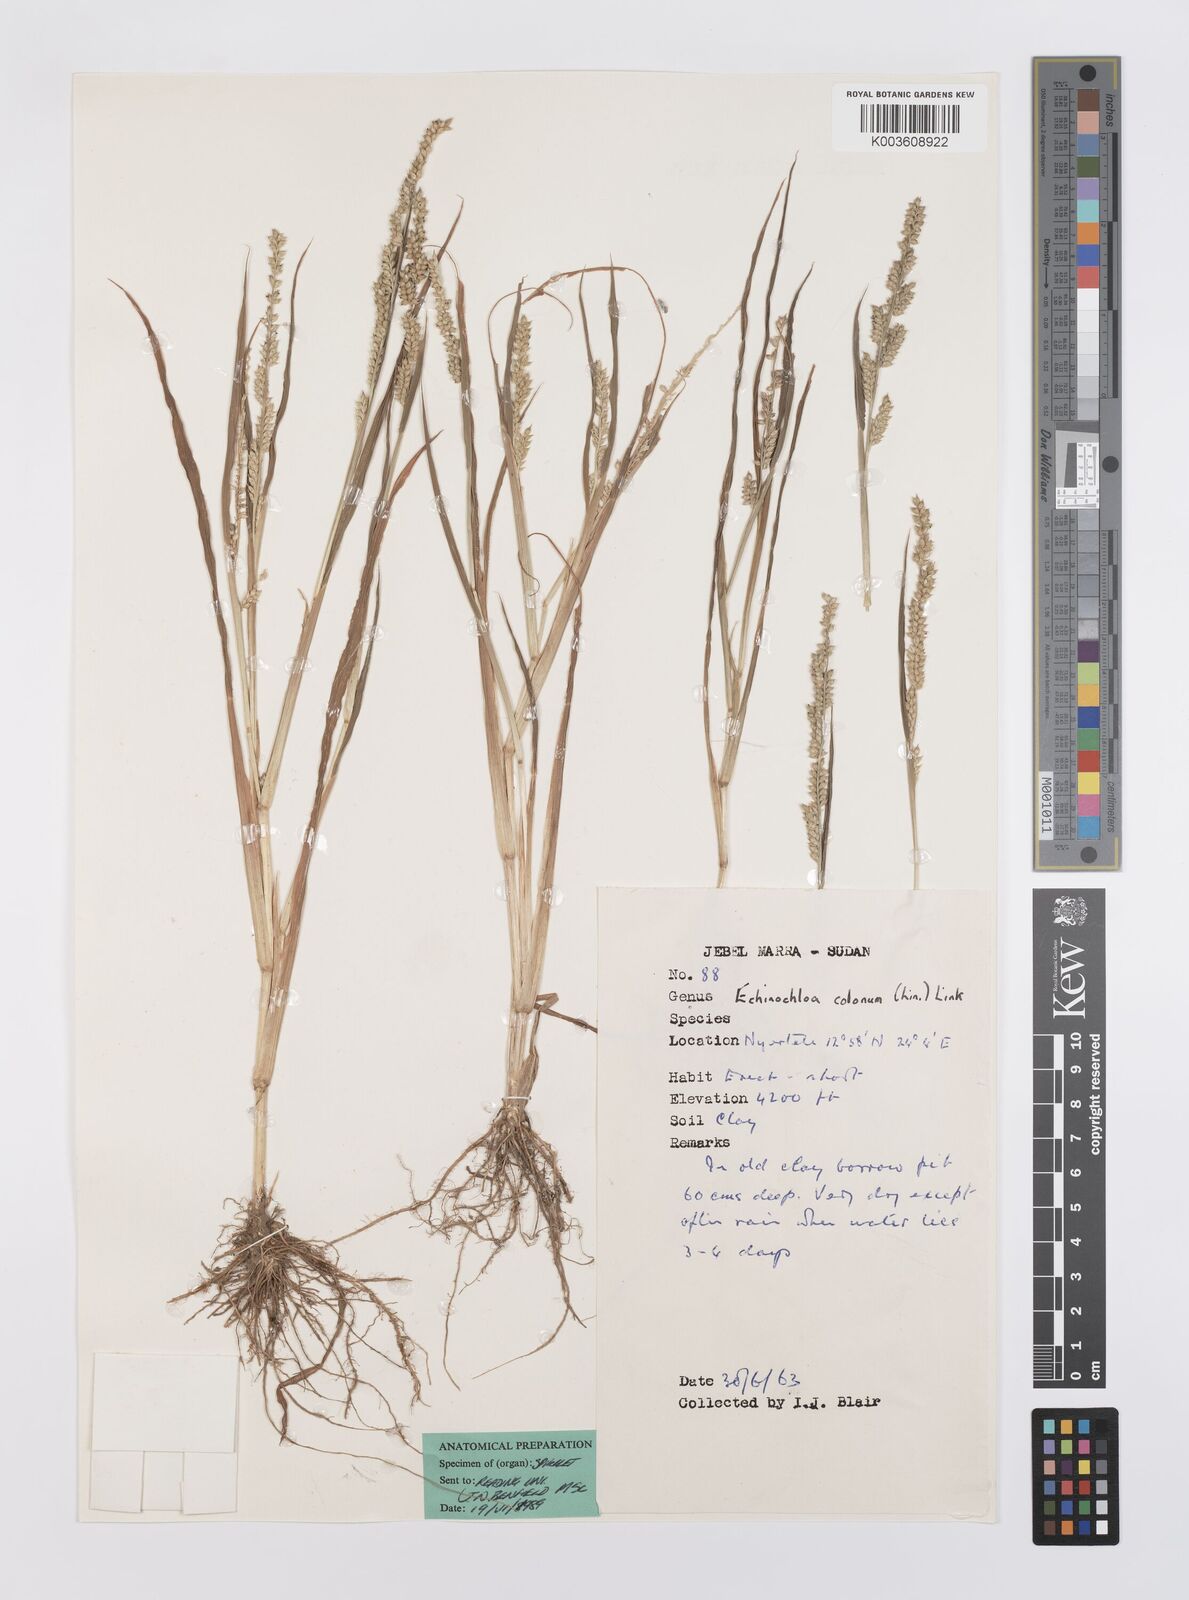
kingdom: Plantae
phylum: Tracheophyta
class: Liliopsida
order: Poales
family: Poaceae
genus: Echinochloa
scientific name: Echinochloa colonum
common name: Jungle rice
